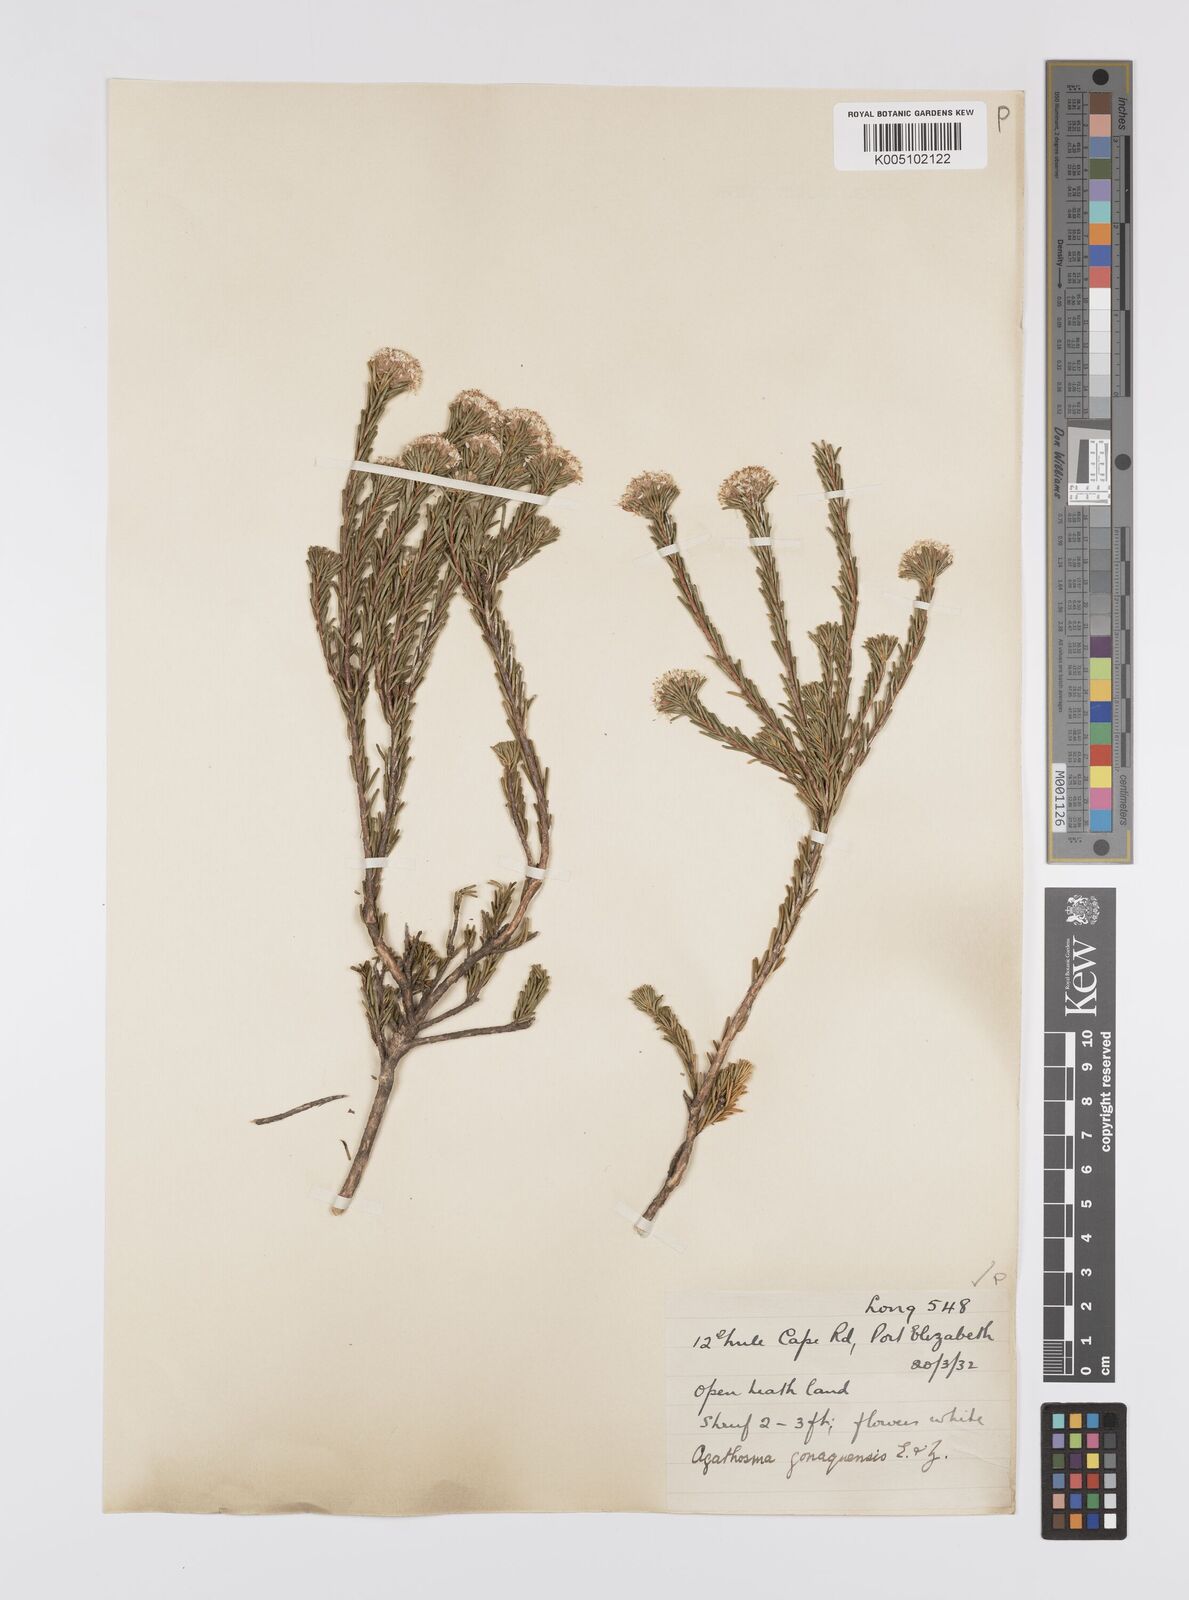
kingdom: Plantae
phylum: Tracheophyta
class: Magnoliopsida
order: Sapindales
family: Rutaceae
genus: Agathosma
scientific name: Agathosma gonaquensis
